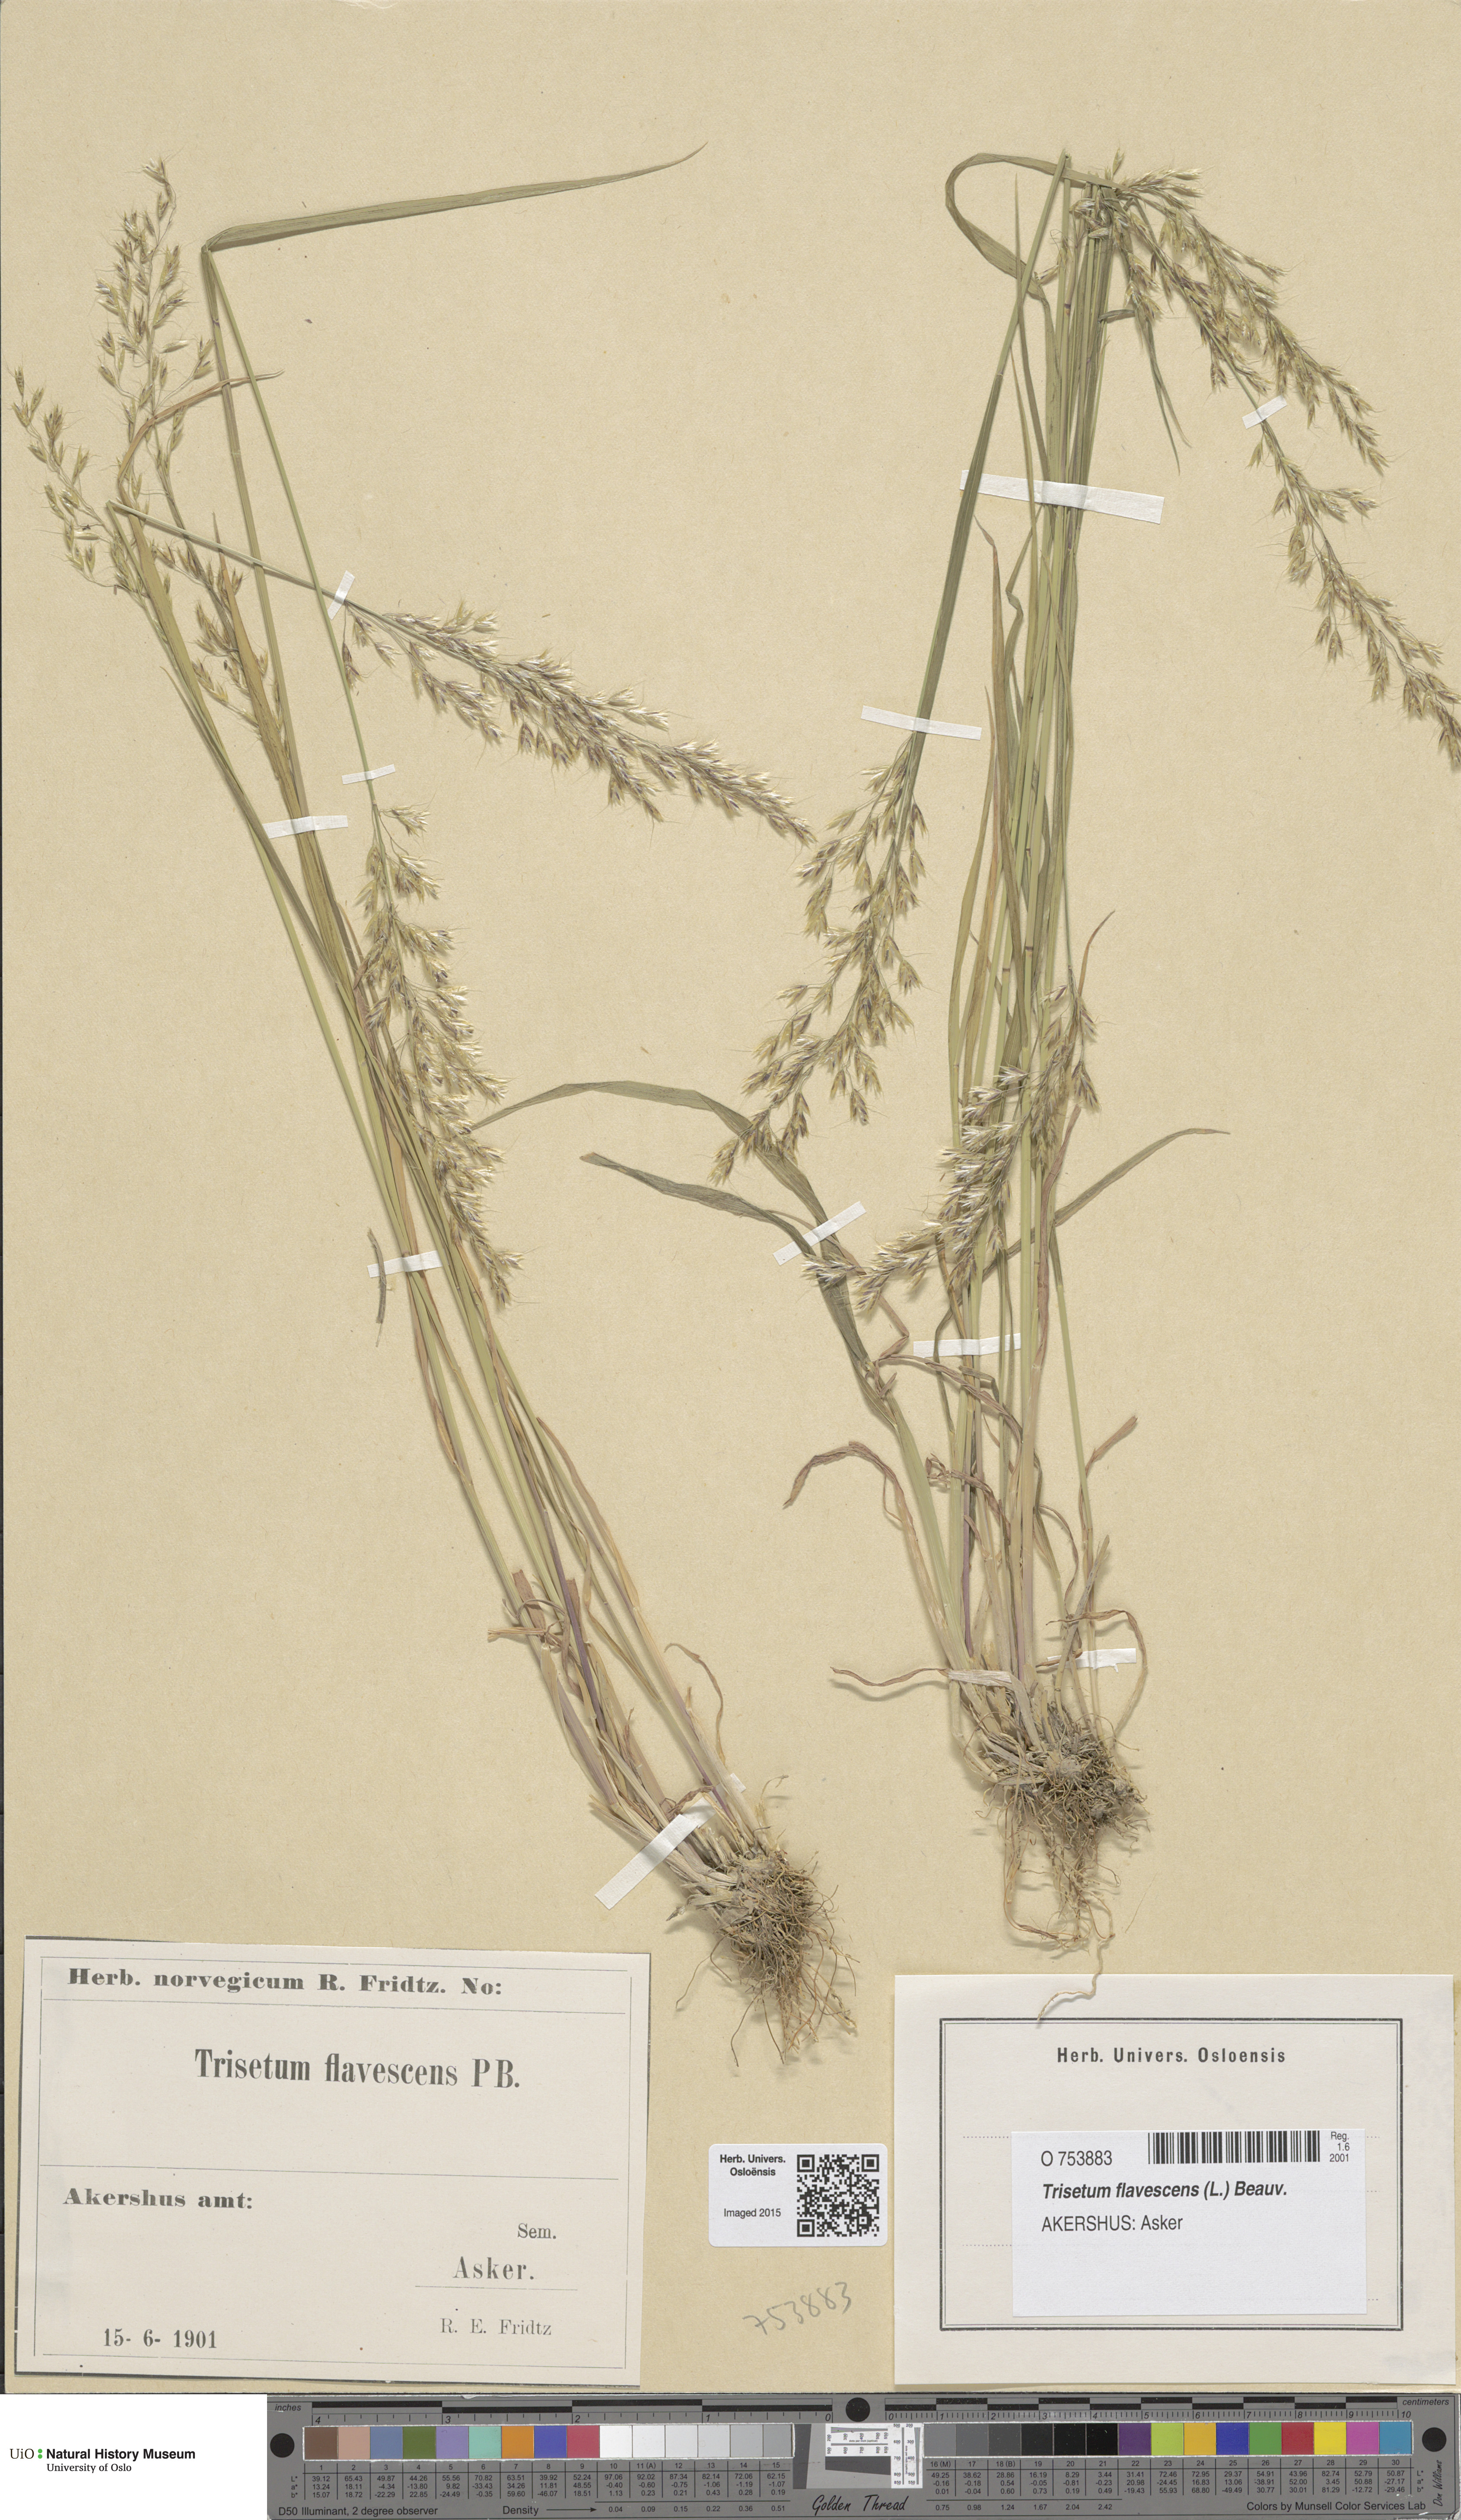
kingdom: Plantae
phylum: Tracheophyta
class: Liliopsida
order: Poales
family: Poaceae
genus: Trisetum
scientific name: Trisetum flavescens
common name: Yellow oat-grass
